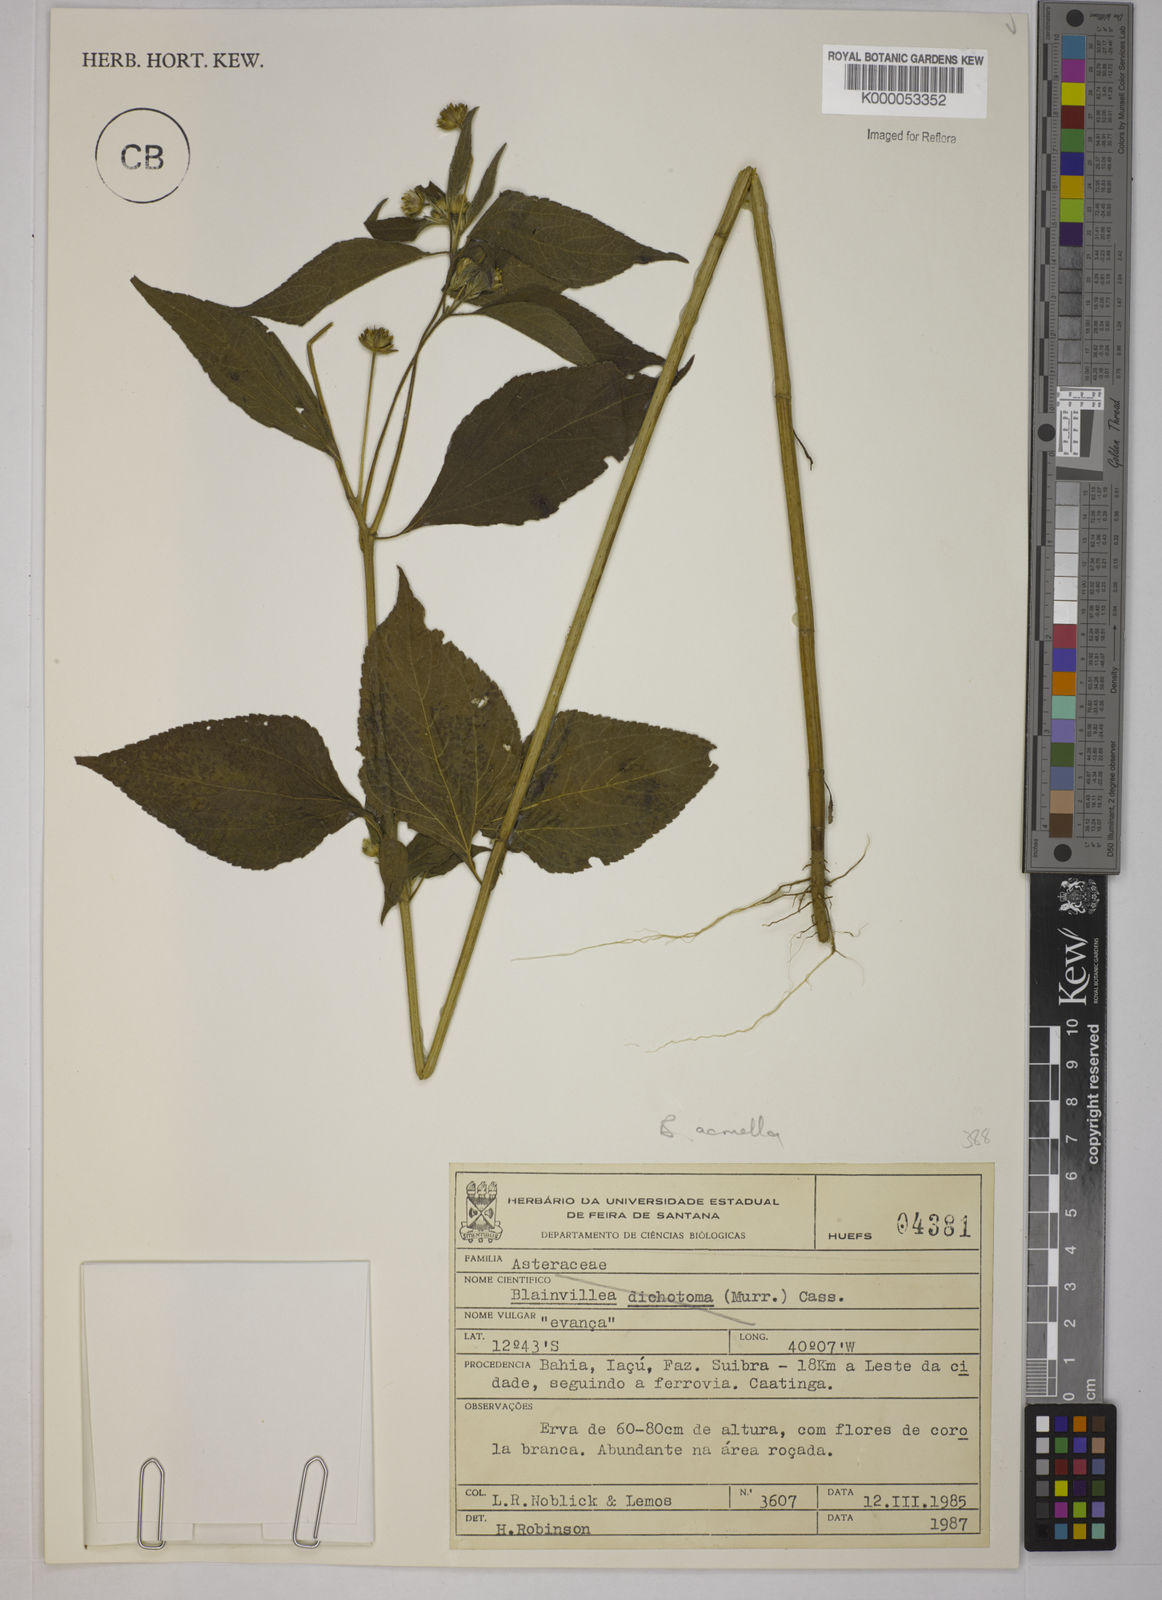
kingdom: Plantae
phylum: Tracheophyta
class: Magnoliopsida
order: Asterales
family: Asteraceae
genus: Blainvillea
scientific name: Blainvillea acmella
